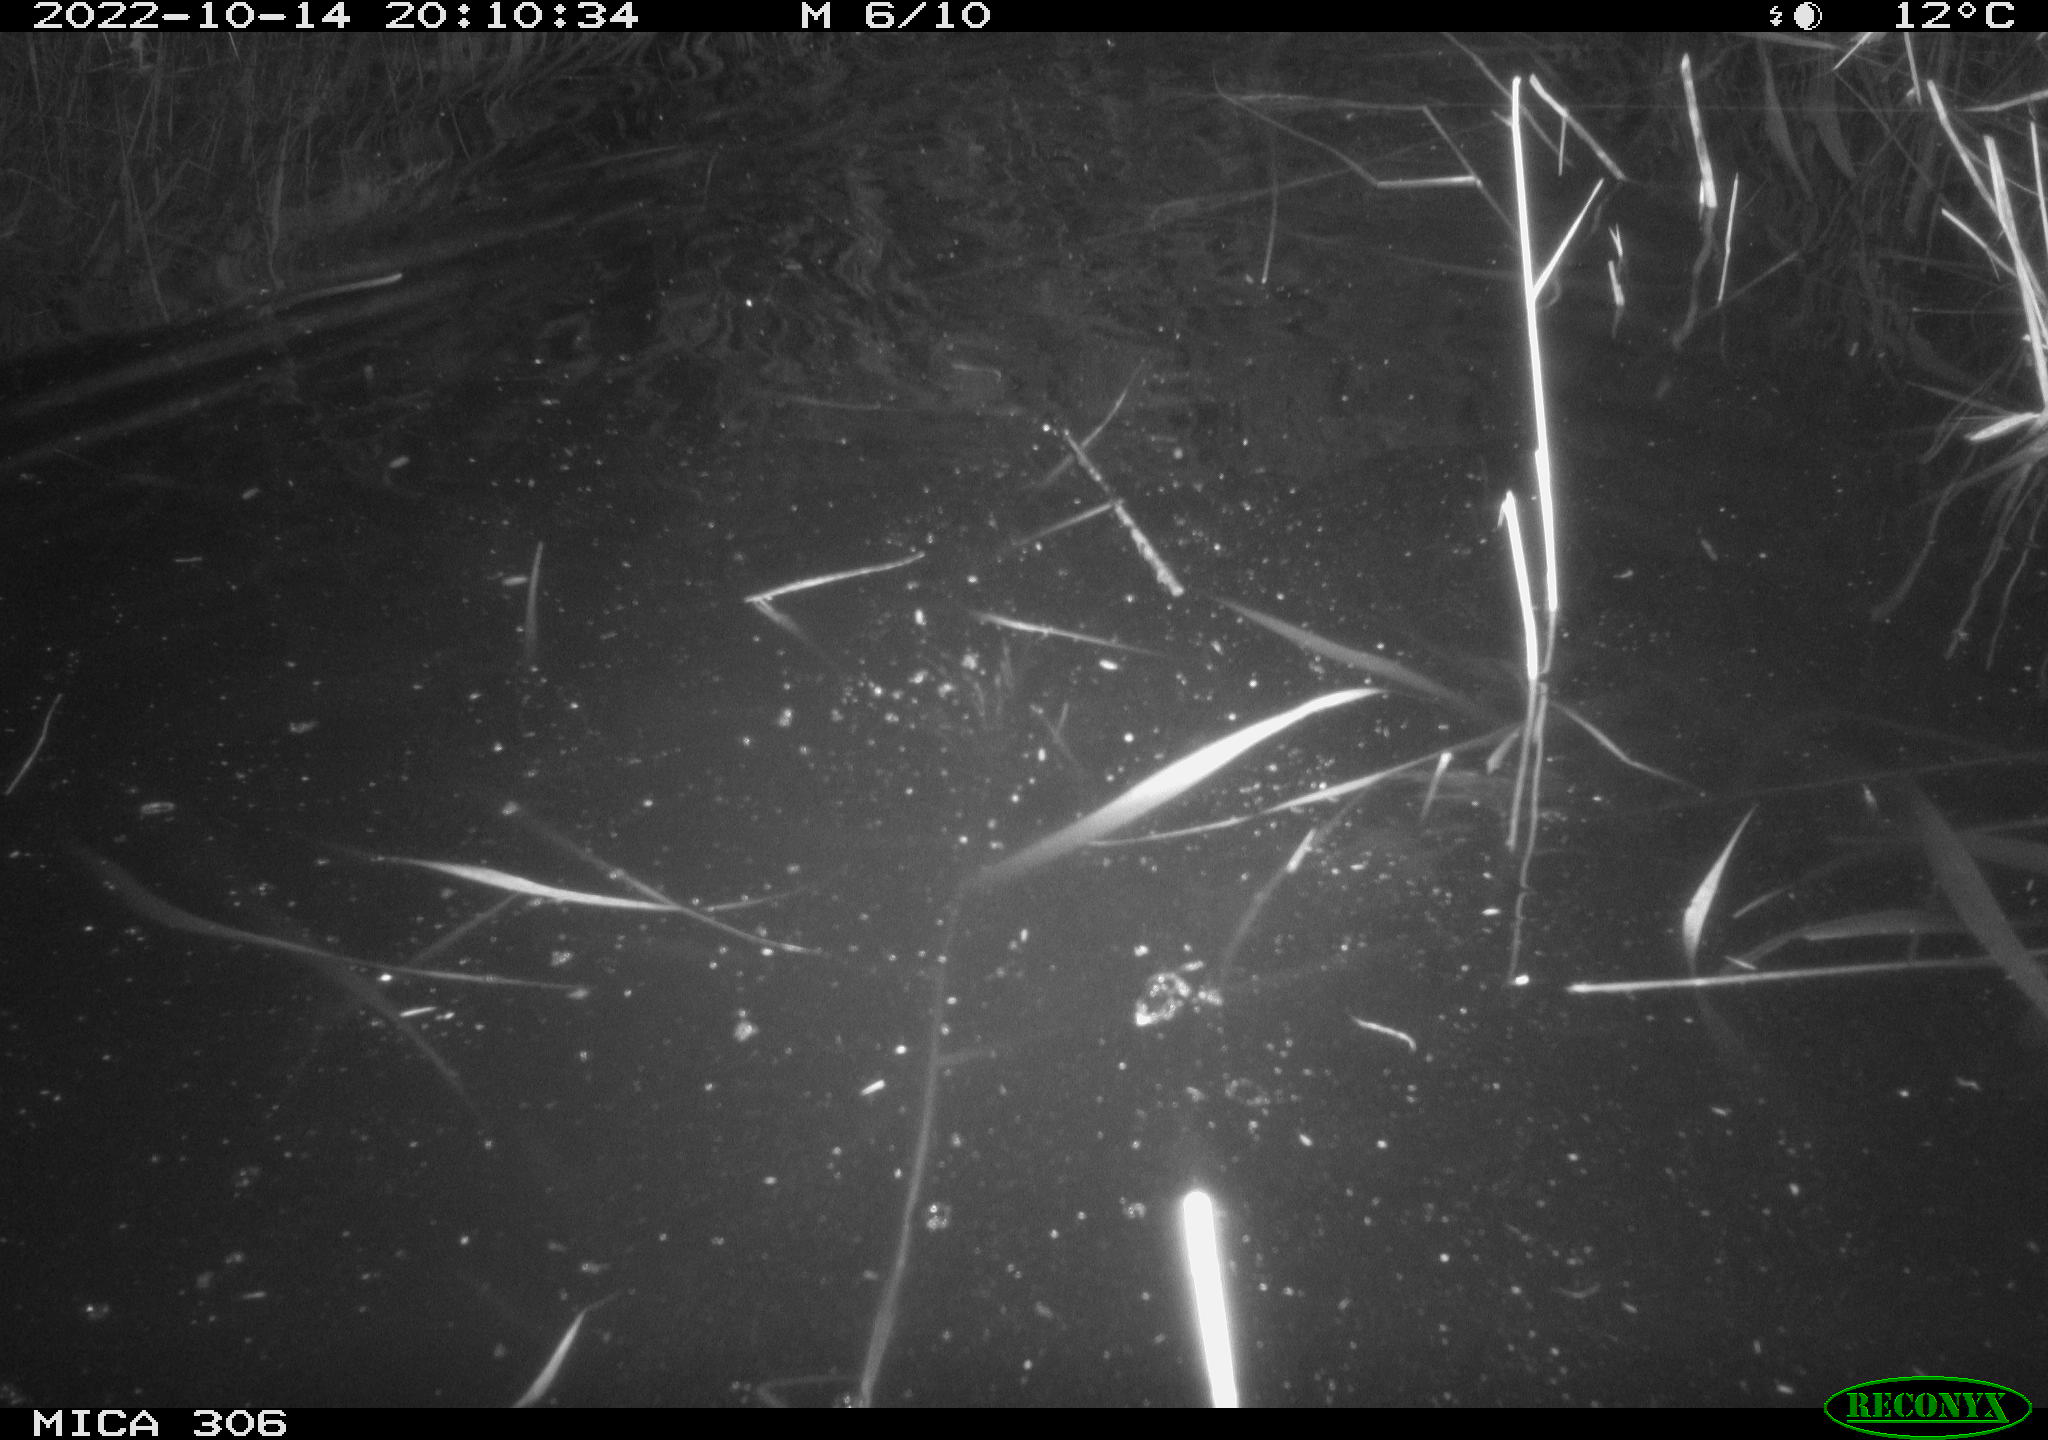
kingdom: Animalia
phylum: Chordata
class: Mammalia
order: Rodentia
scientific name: Rodentia
